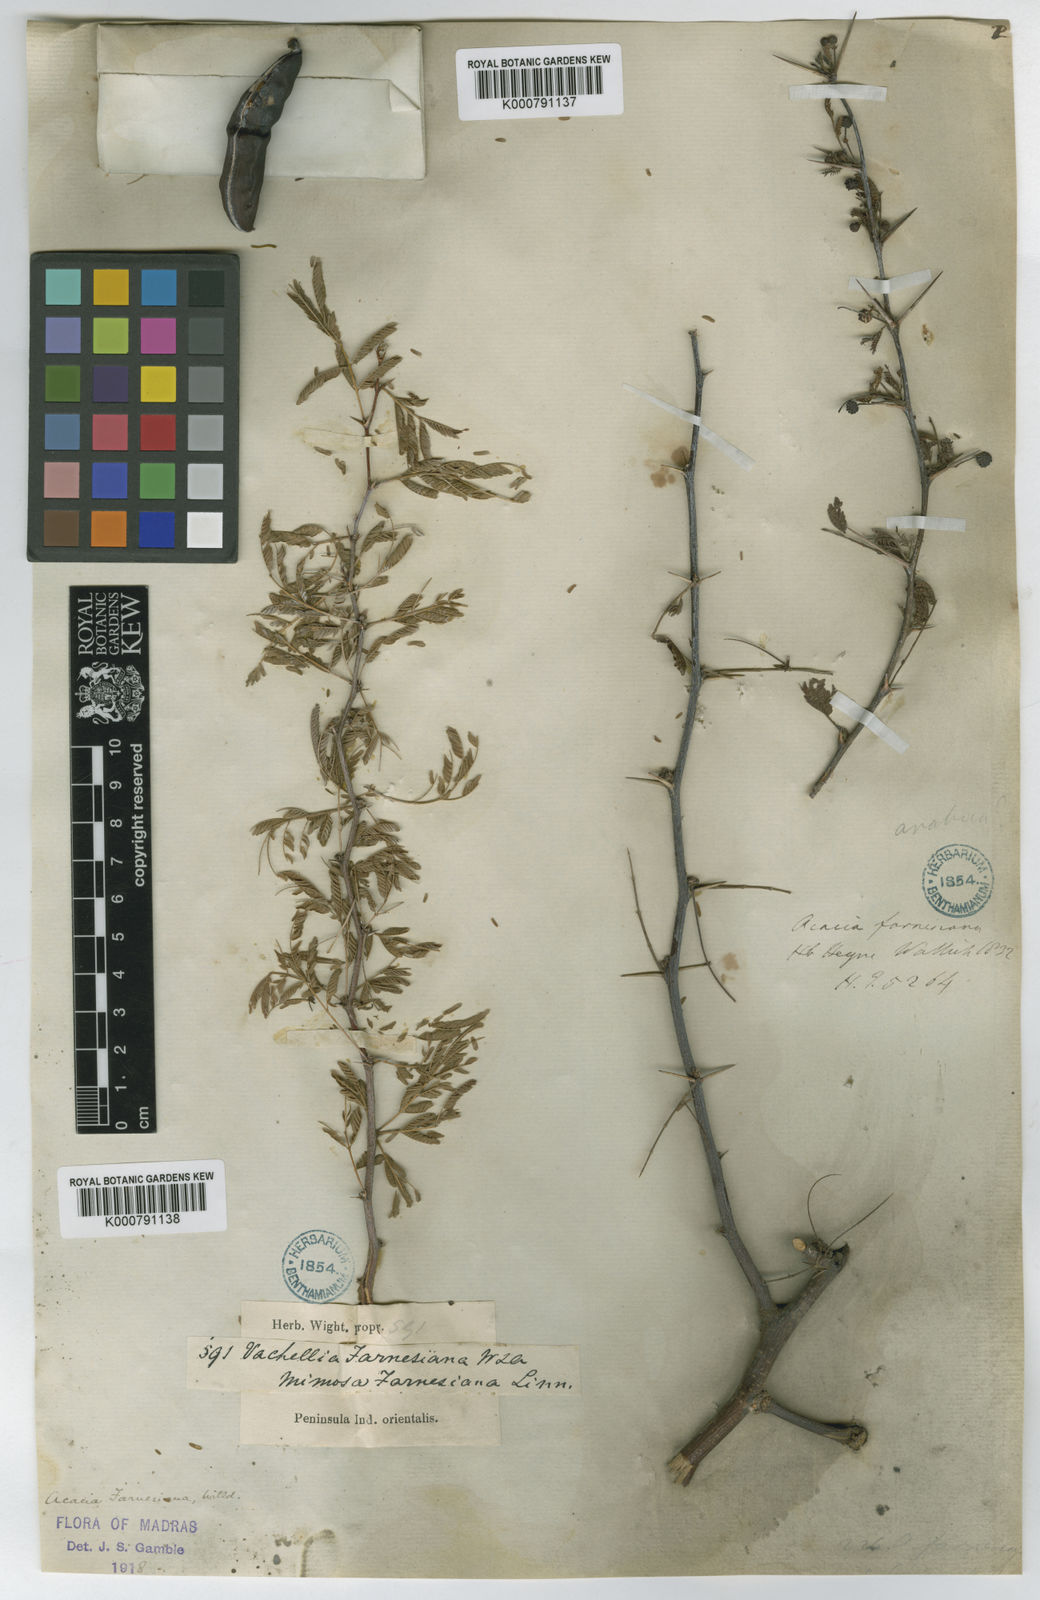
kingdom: Plantae
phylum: Tracheophyta
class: Magnoliopsida
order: Fabales
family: Fabaceae
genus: Vachellia
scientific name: Vachellia farnesiana
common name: Sweet acacia
